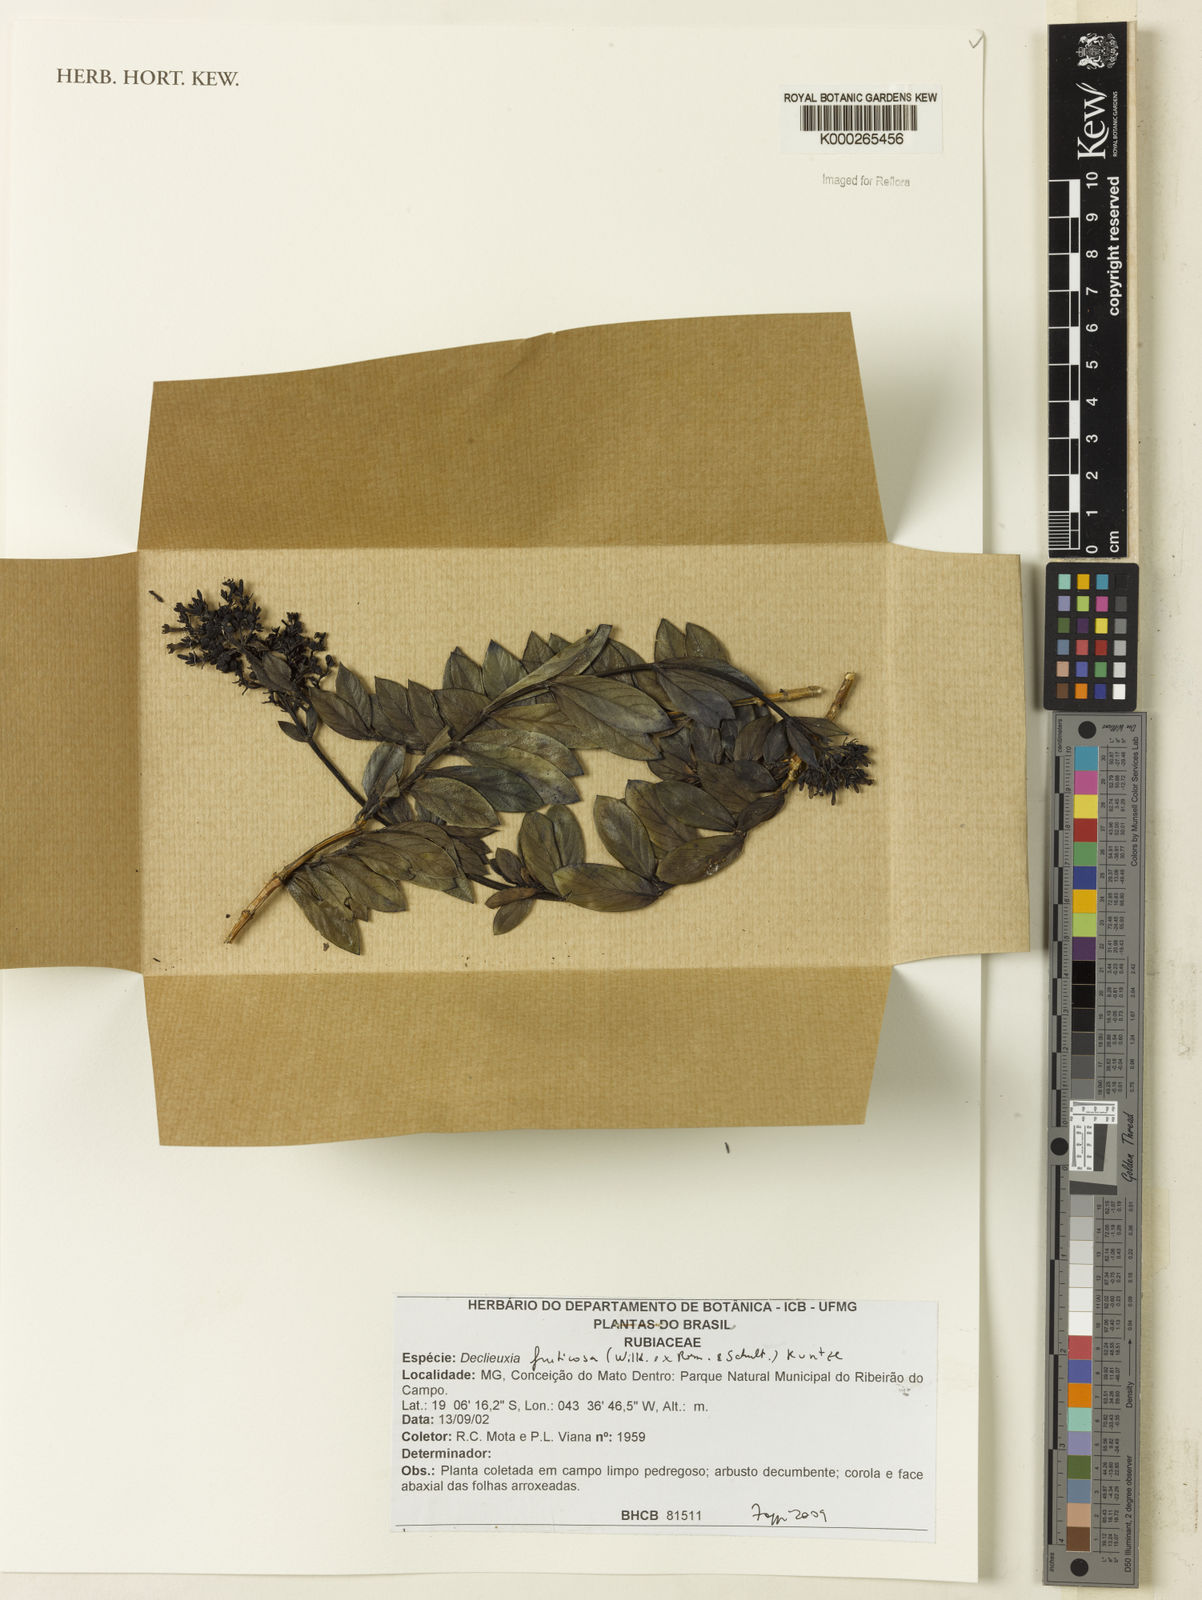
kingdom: Plantae
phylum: Tracheophyta
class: Magnoliopsida
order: Gentianales
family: Rubiaceae
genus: Declieuxia
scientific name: Declieuxia fruticosa
